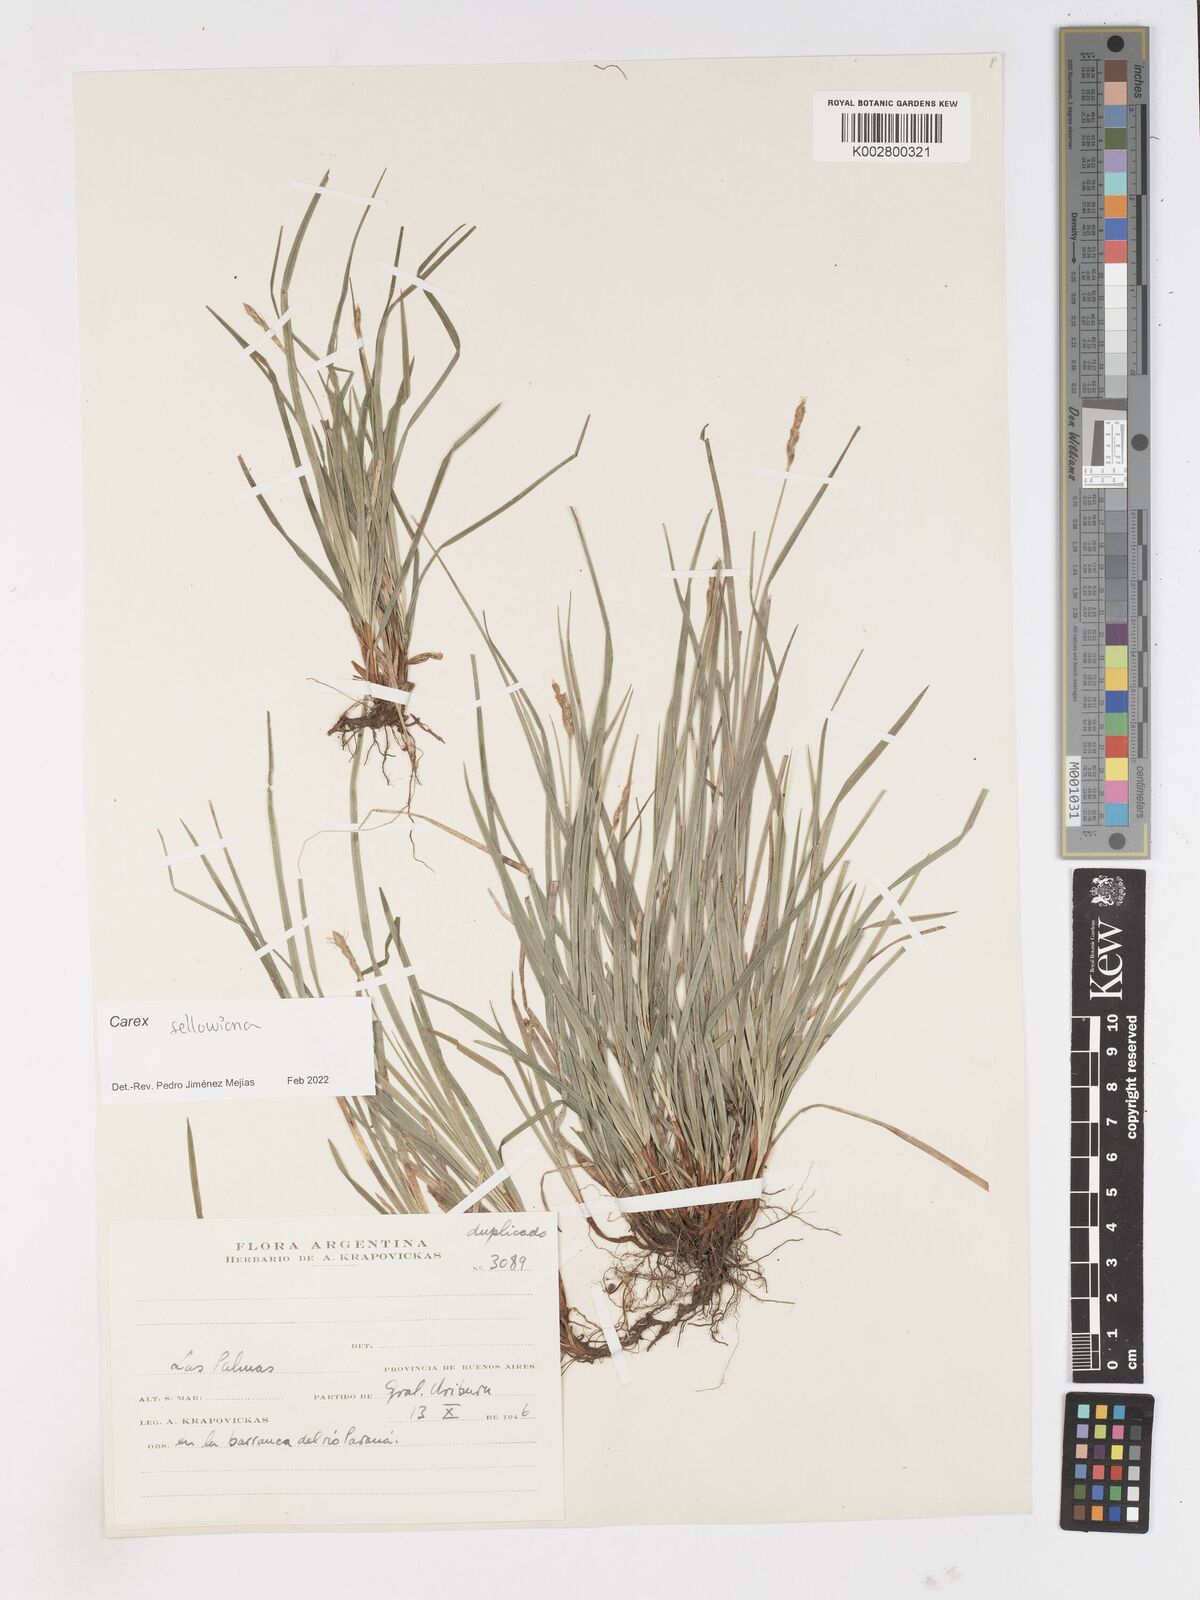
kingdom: Plantae
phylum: Tracheophyta
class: Liliopsida
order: Poales
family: Cyperaceae
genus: Carex
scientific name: Carex sellowiana
